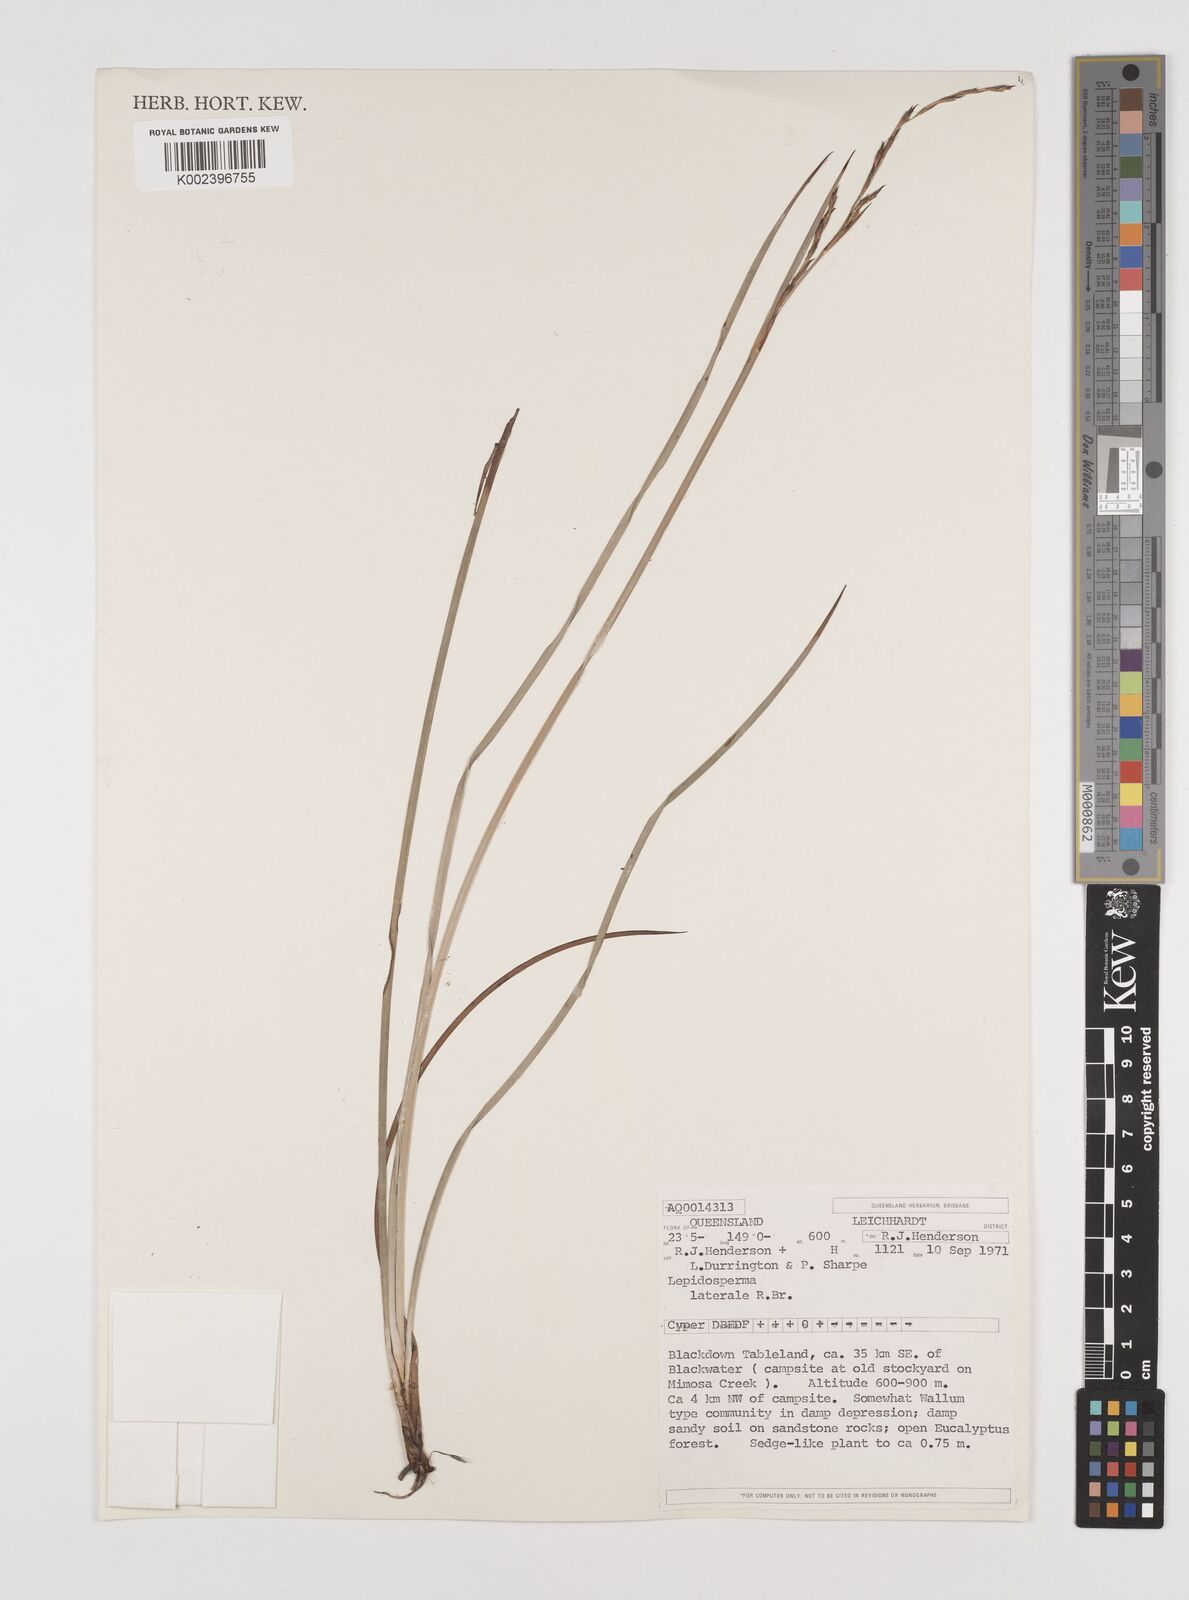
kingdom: Plantae
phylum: Tracheophyta
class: Liliopsida
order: Poales
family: Cyperaceae
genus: Lepidosperma
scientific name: Lepidosperma laterale
